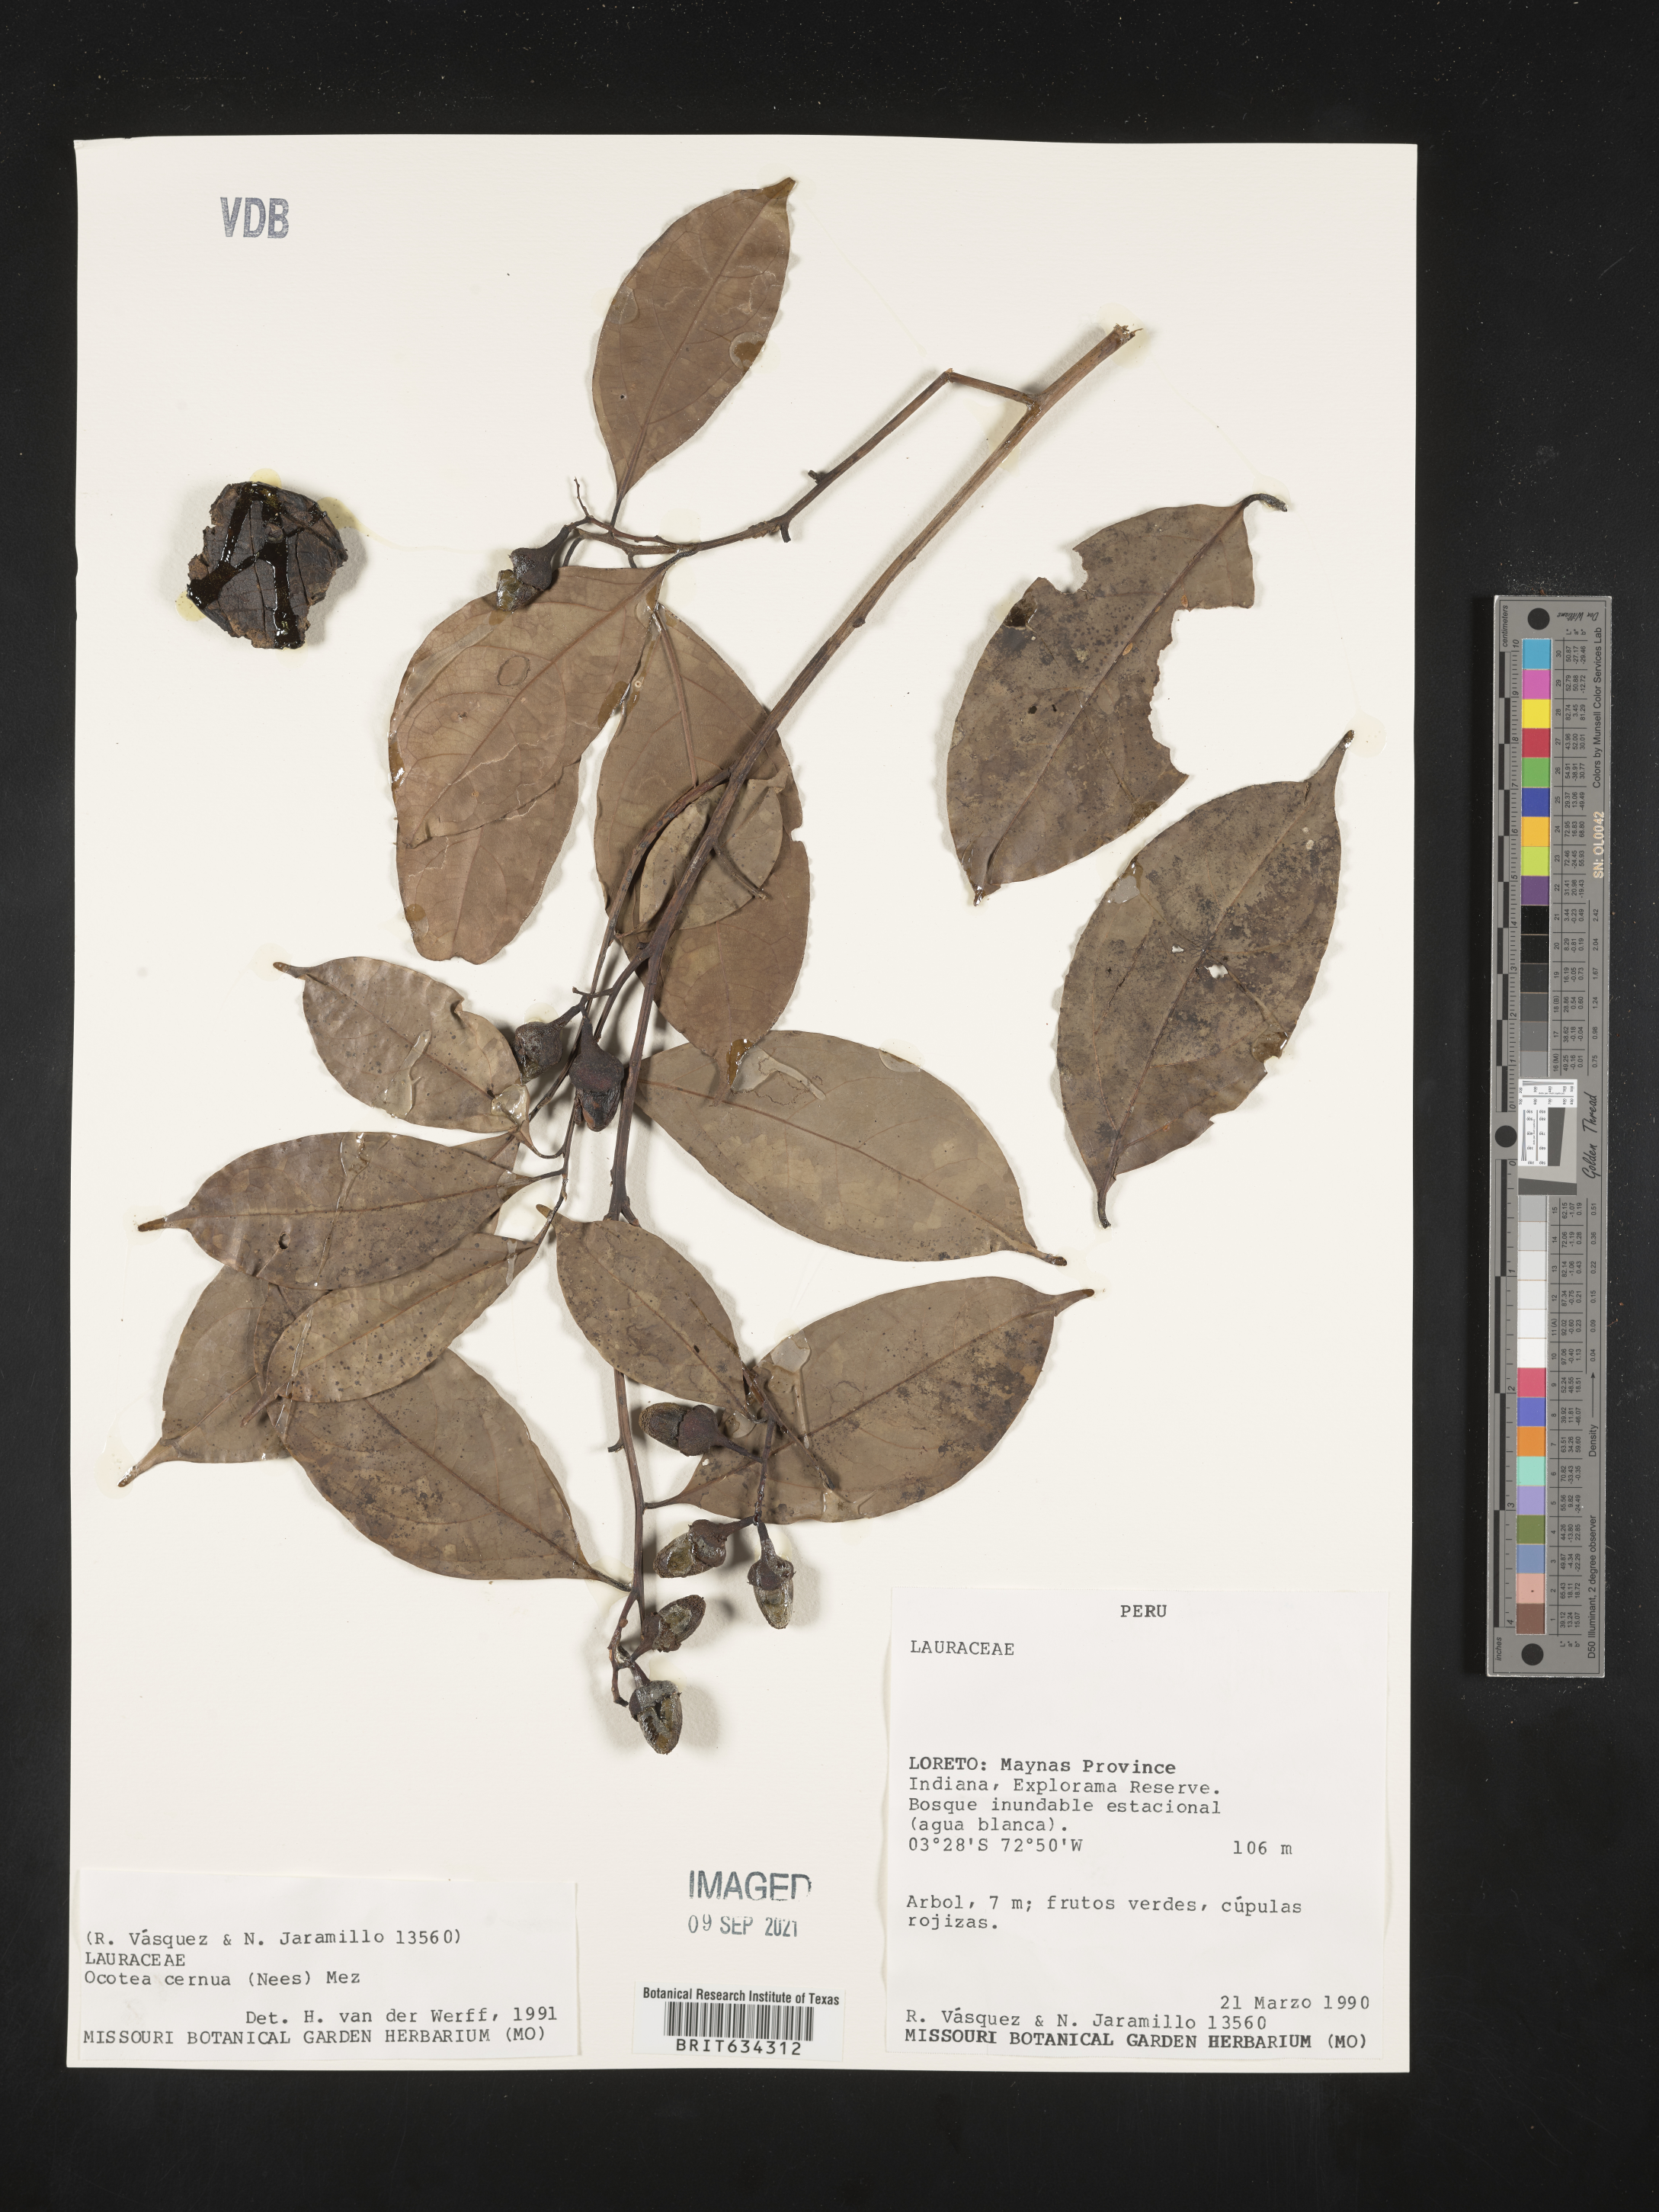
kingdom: Plantae
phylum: Tracheophyta
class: Magnoliopsida
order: Laurales
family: Lauraceae
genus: Ocotea
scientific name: Ocotea
